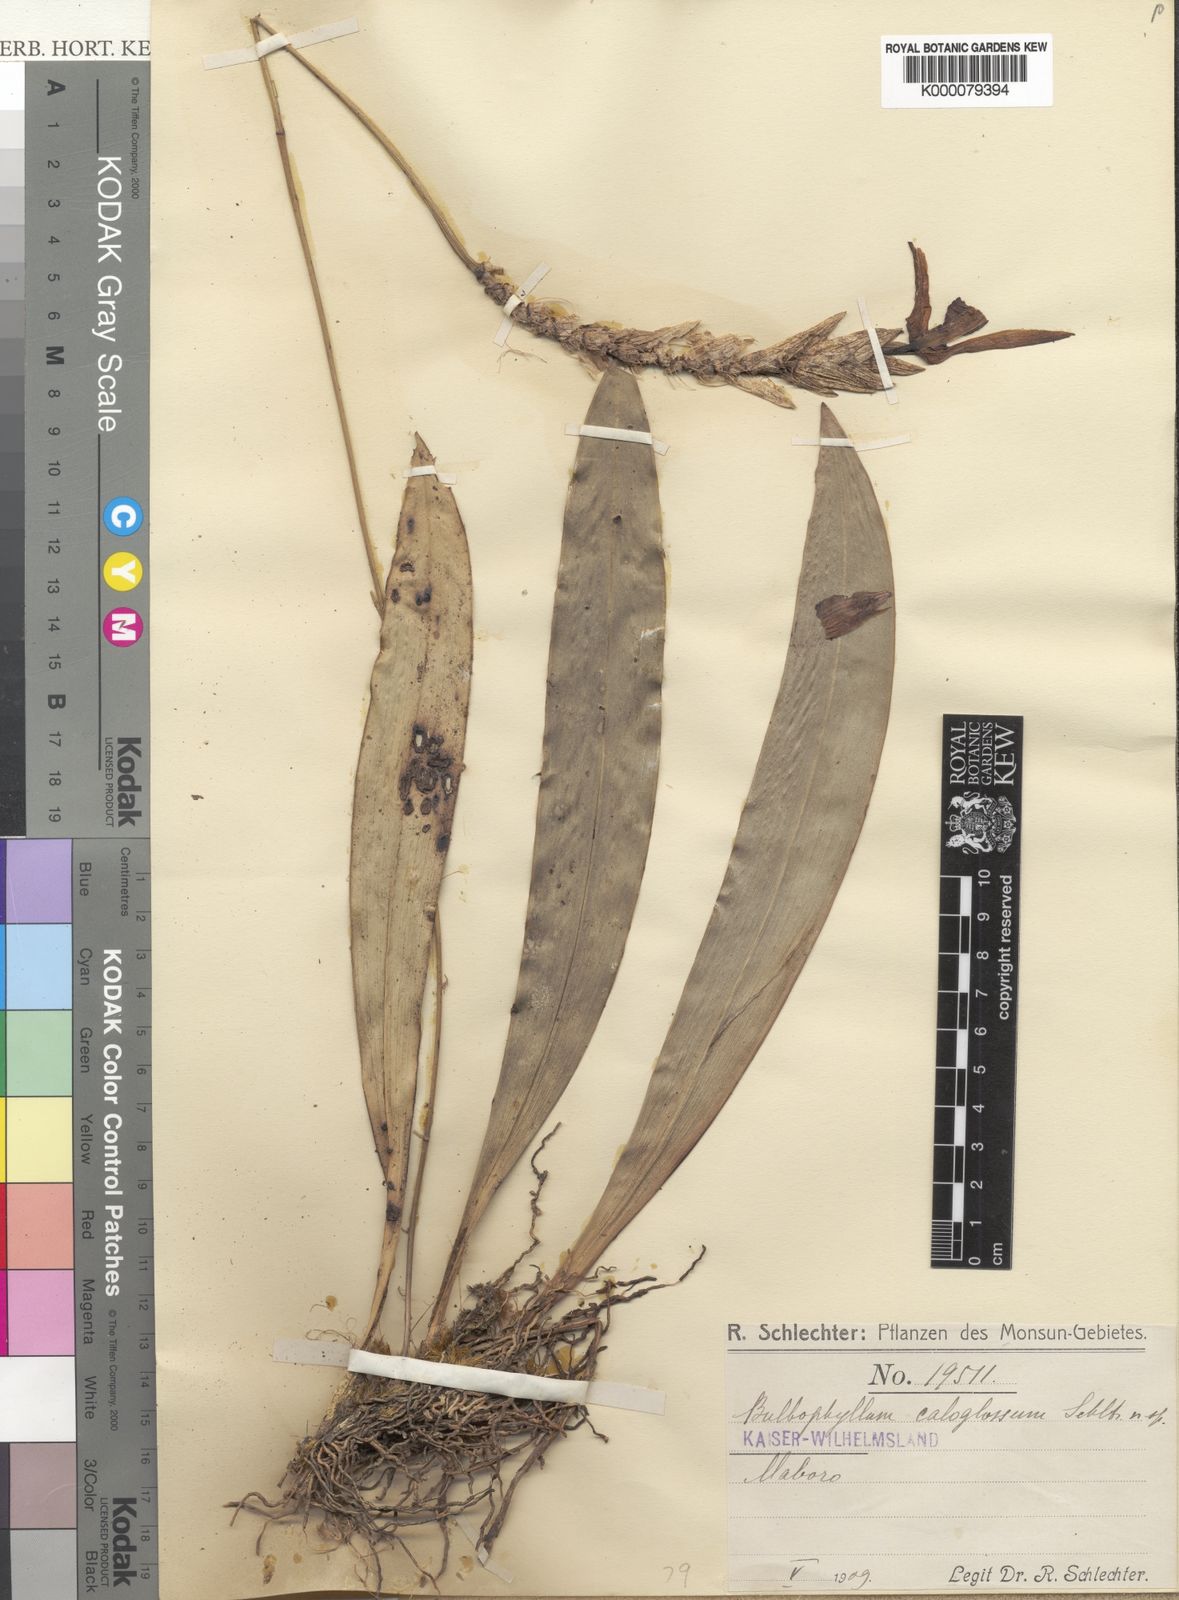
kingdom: Plantae
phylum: Tracheophyta
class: Liliopsida
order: Asparagales
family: Orchidaceae
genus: Bulbophyllum
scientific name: Bulbophyllum caloglossum
